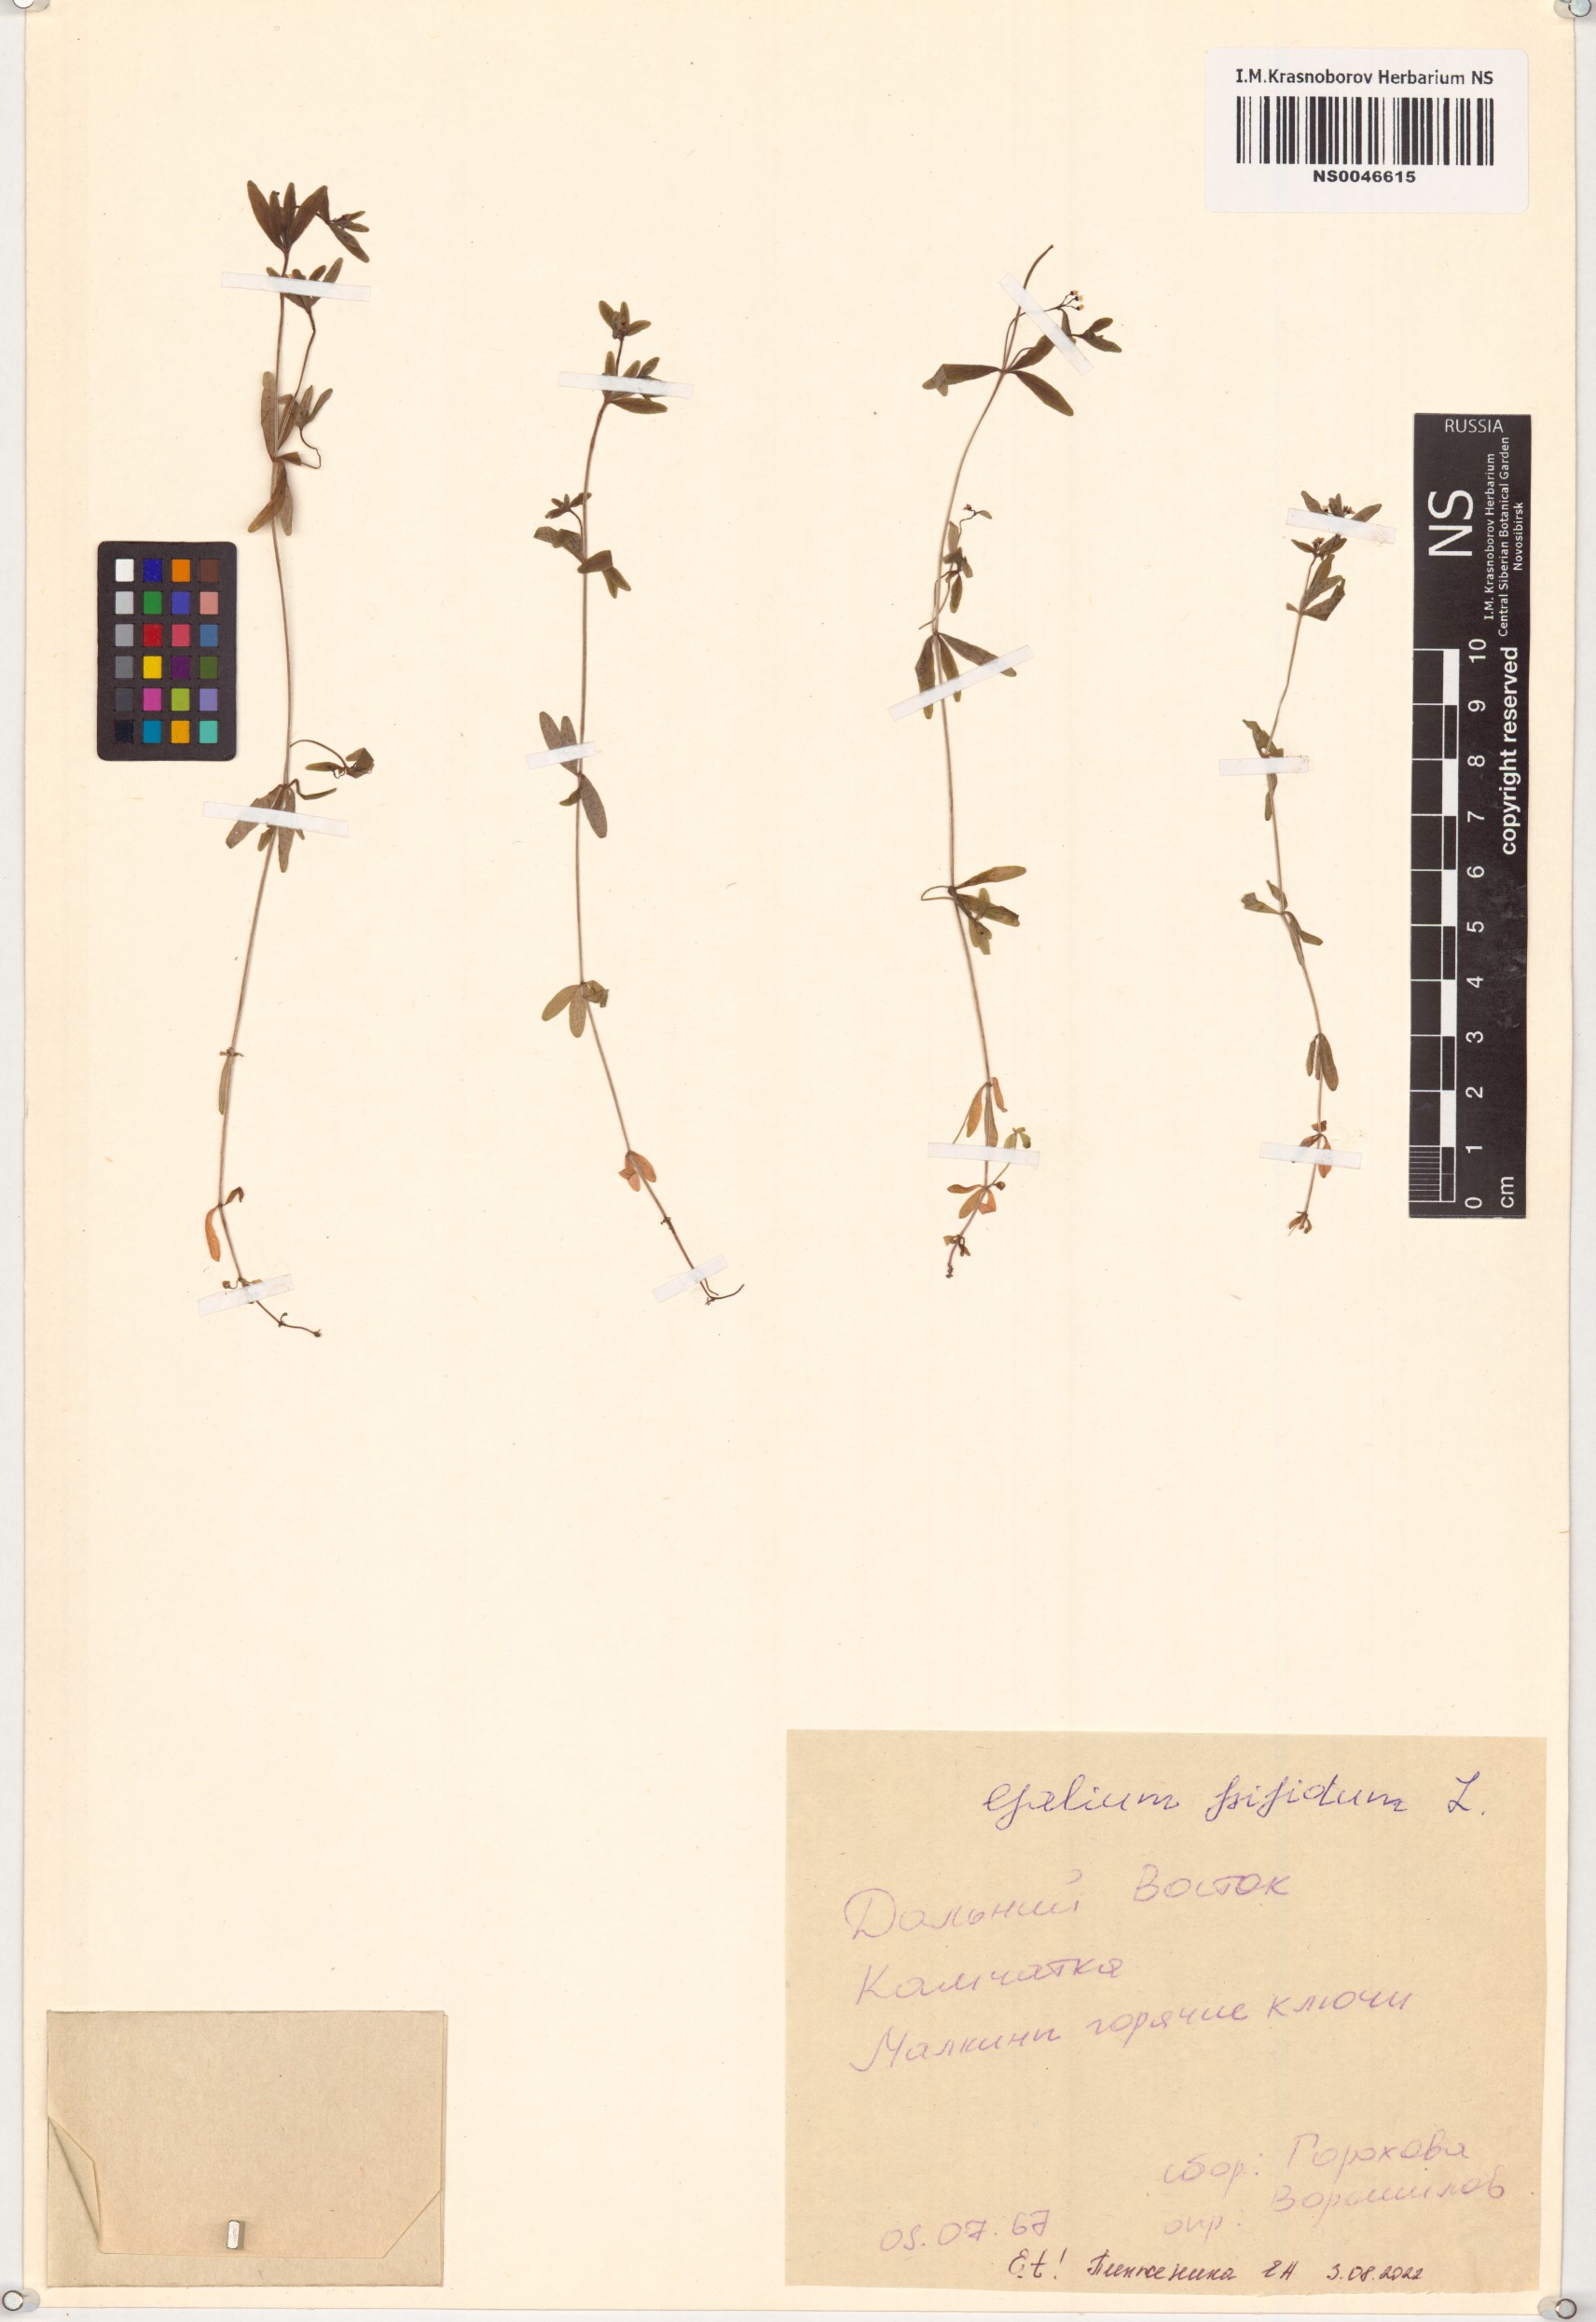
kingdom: Plantae
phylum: Tracheophyta
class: Magnoliopsida
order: Gentianales
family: Rubiaceae
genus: Galium
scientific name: Galium trifidum
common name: Small bedstraw
